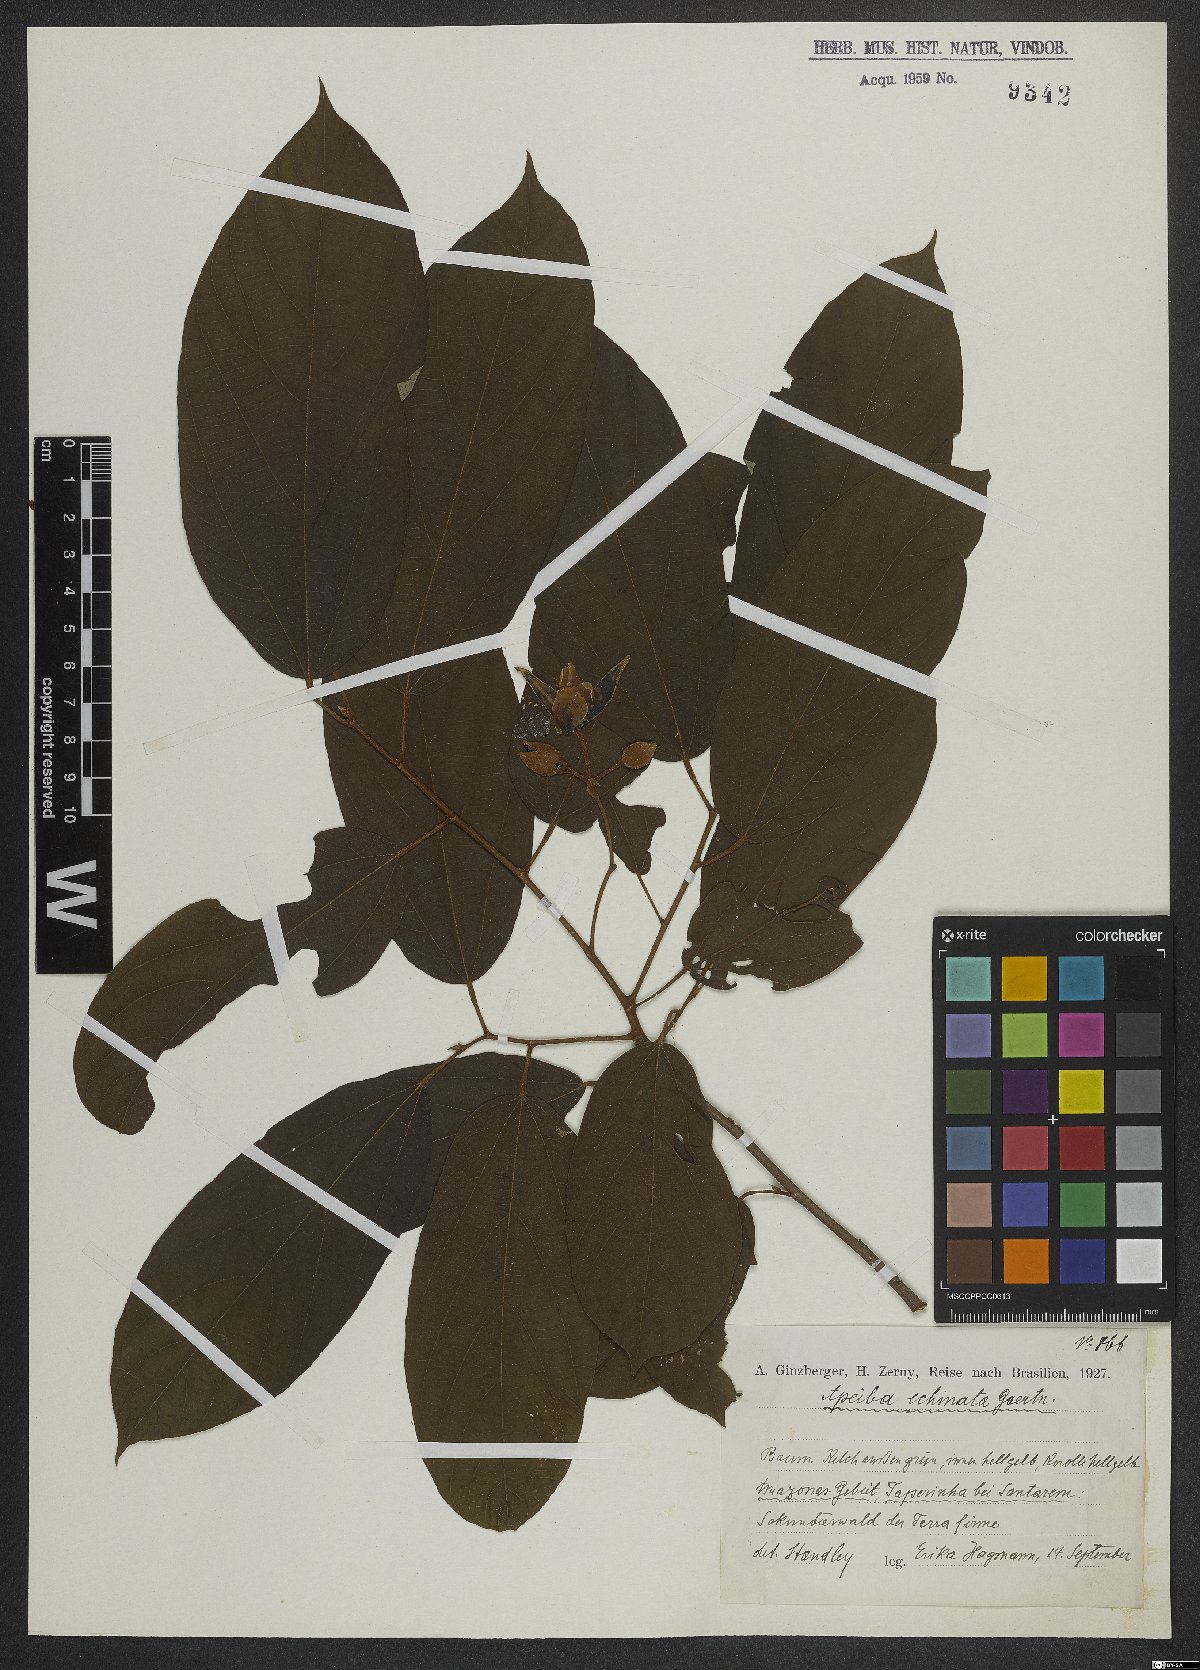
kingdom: Plantae
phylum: Tracheophyta
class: Magnoliopsida
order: Malvales
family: Malvaceae
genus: Apeiba
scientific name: Apeiba petoumo
